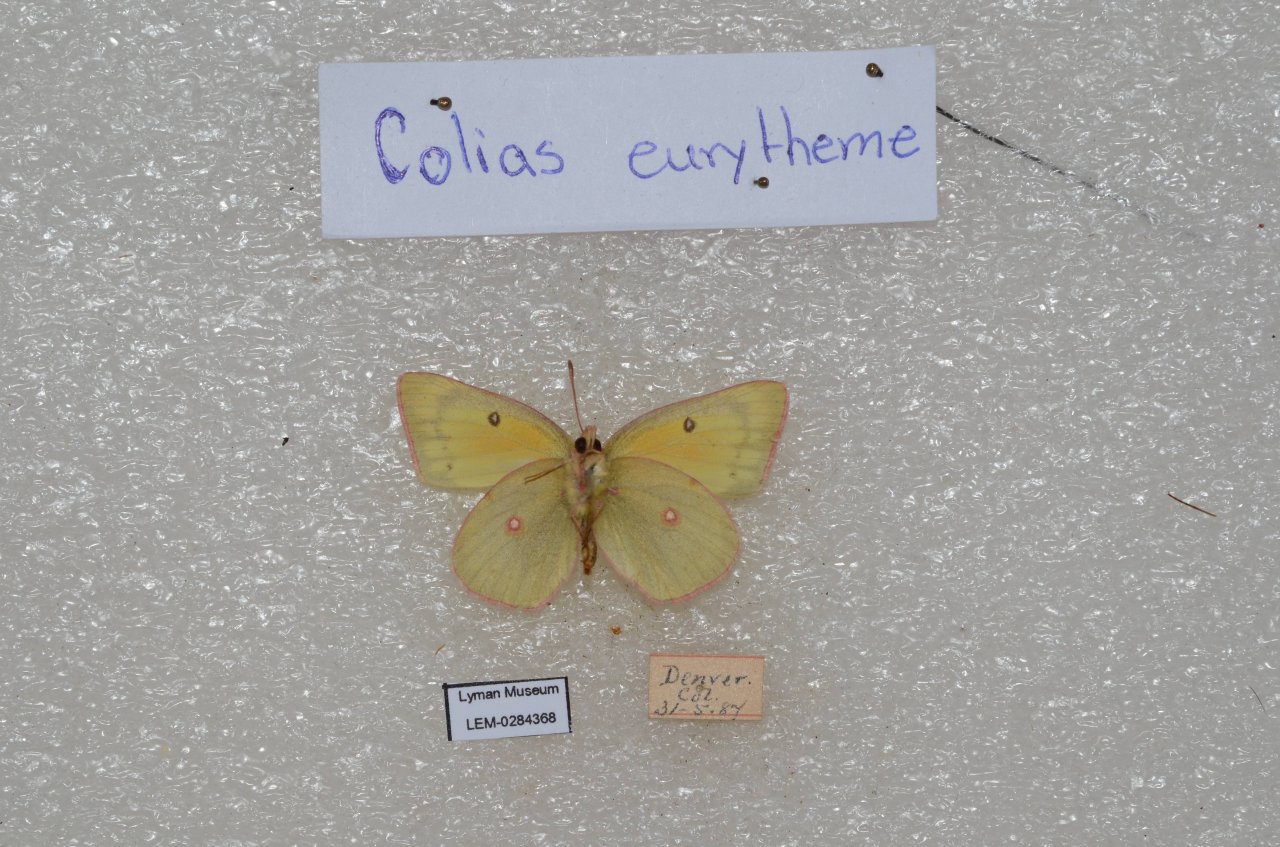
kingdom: Animalia
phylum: Arthropoda
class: Insecta
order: Lepidoptera
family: Pieridae
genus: Colias
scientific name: Colias eurytheme
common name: Orange Sulphur
